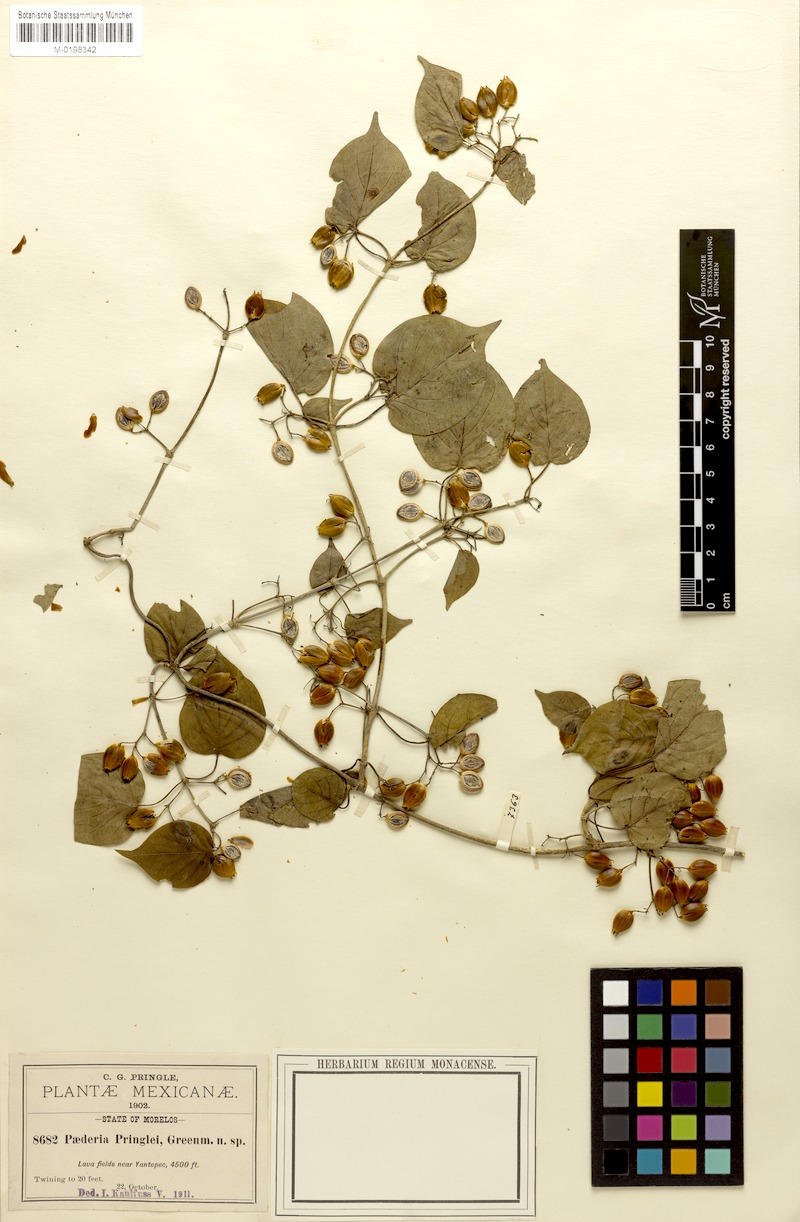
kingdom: Plantae
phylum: Tracheophyta
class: Magnoliopsida
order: Gentianales
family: Rubiaceae
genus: Paederia
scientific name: Paederia ciliata
